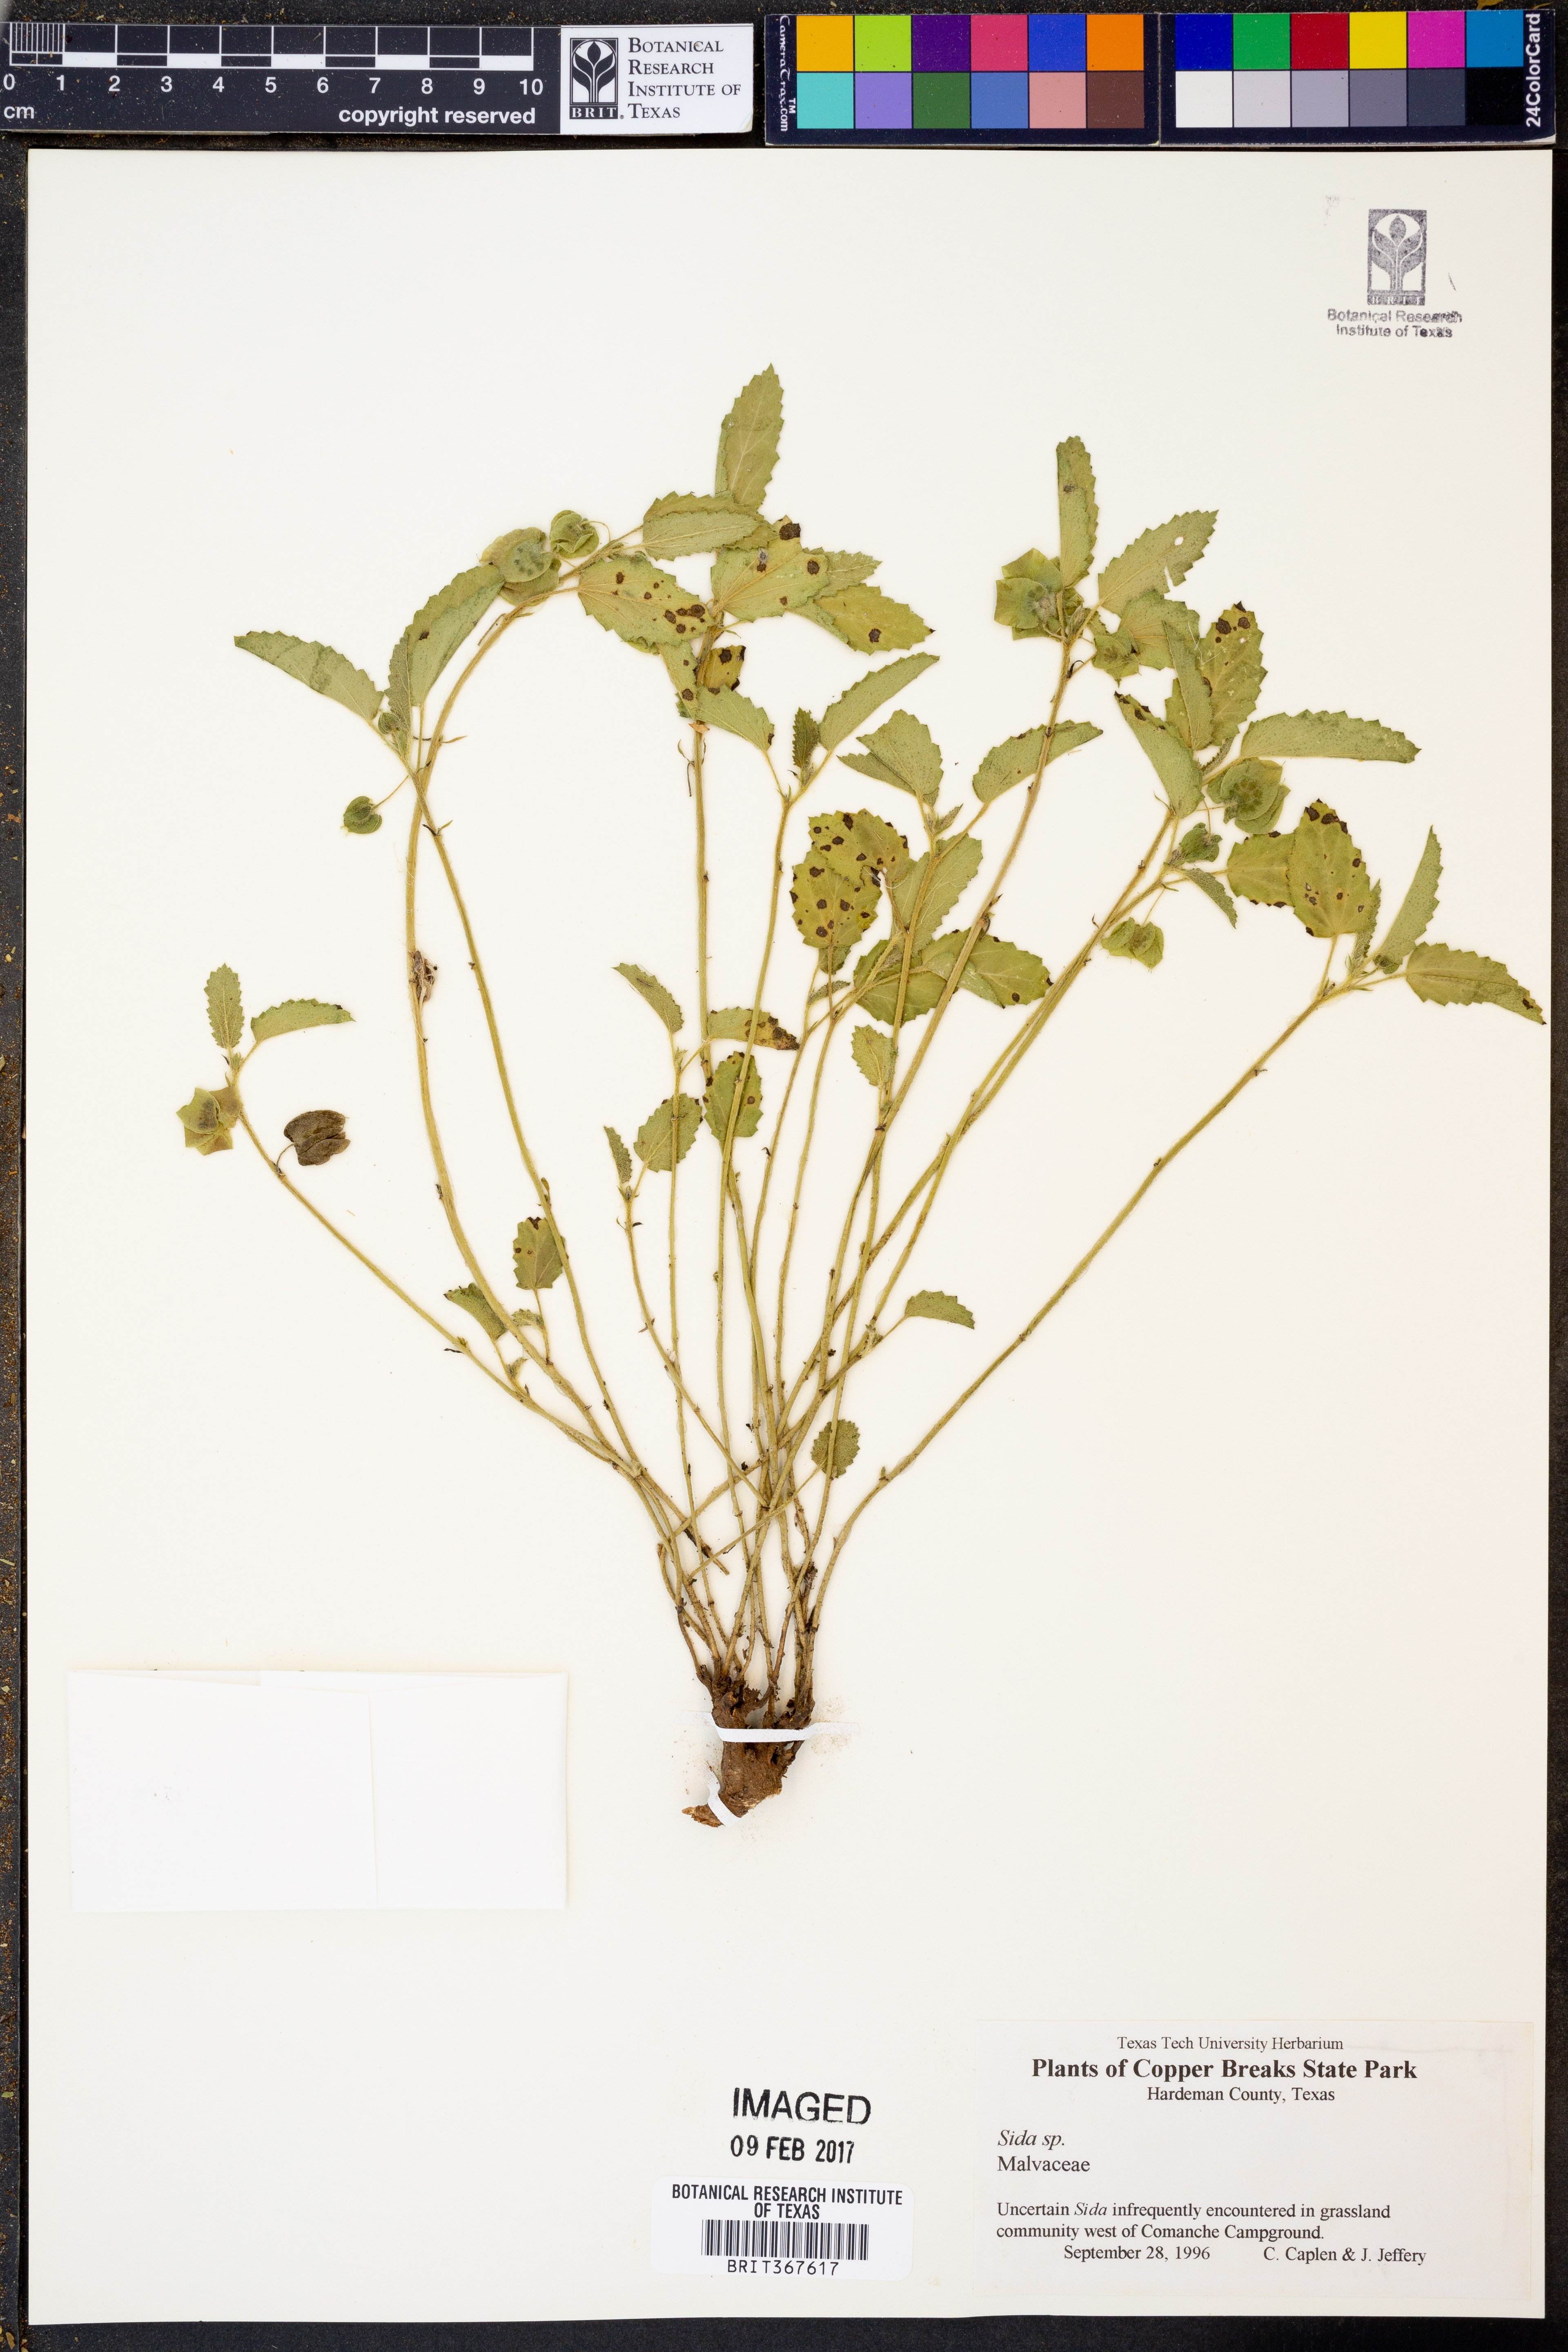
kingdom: Plantae
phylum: Tracheophyta
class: Magnoliopsida
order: Malvales
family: Malvaceae
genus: Sida
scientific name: Sida
